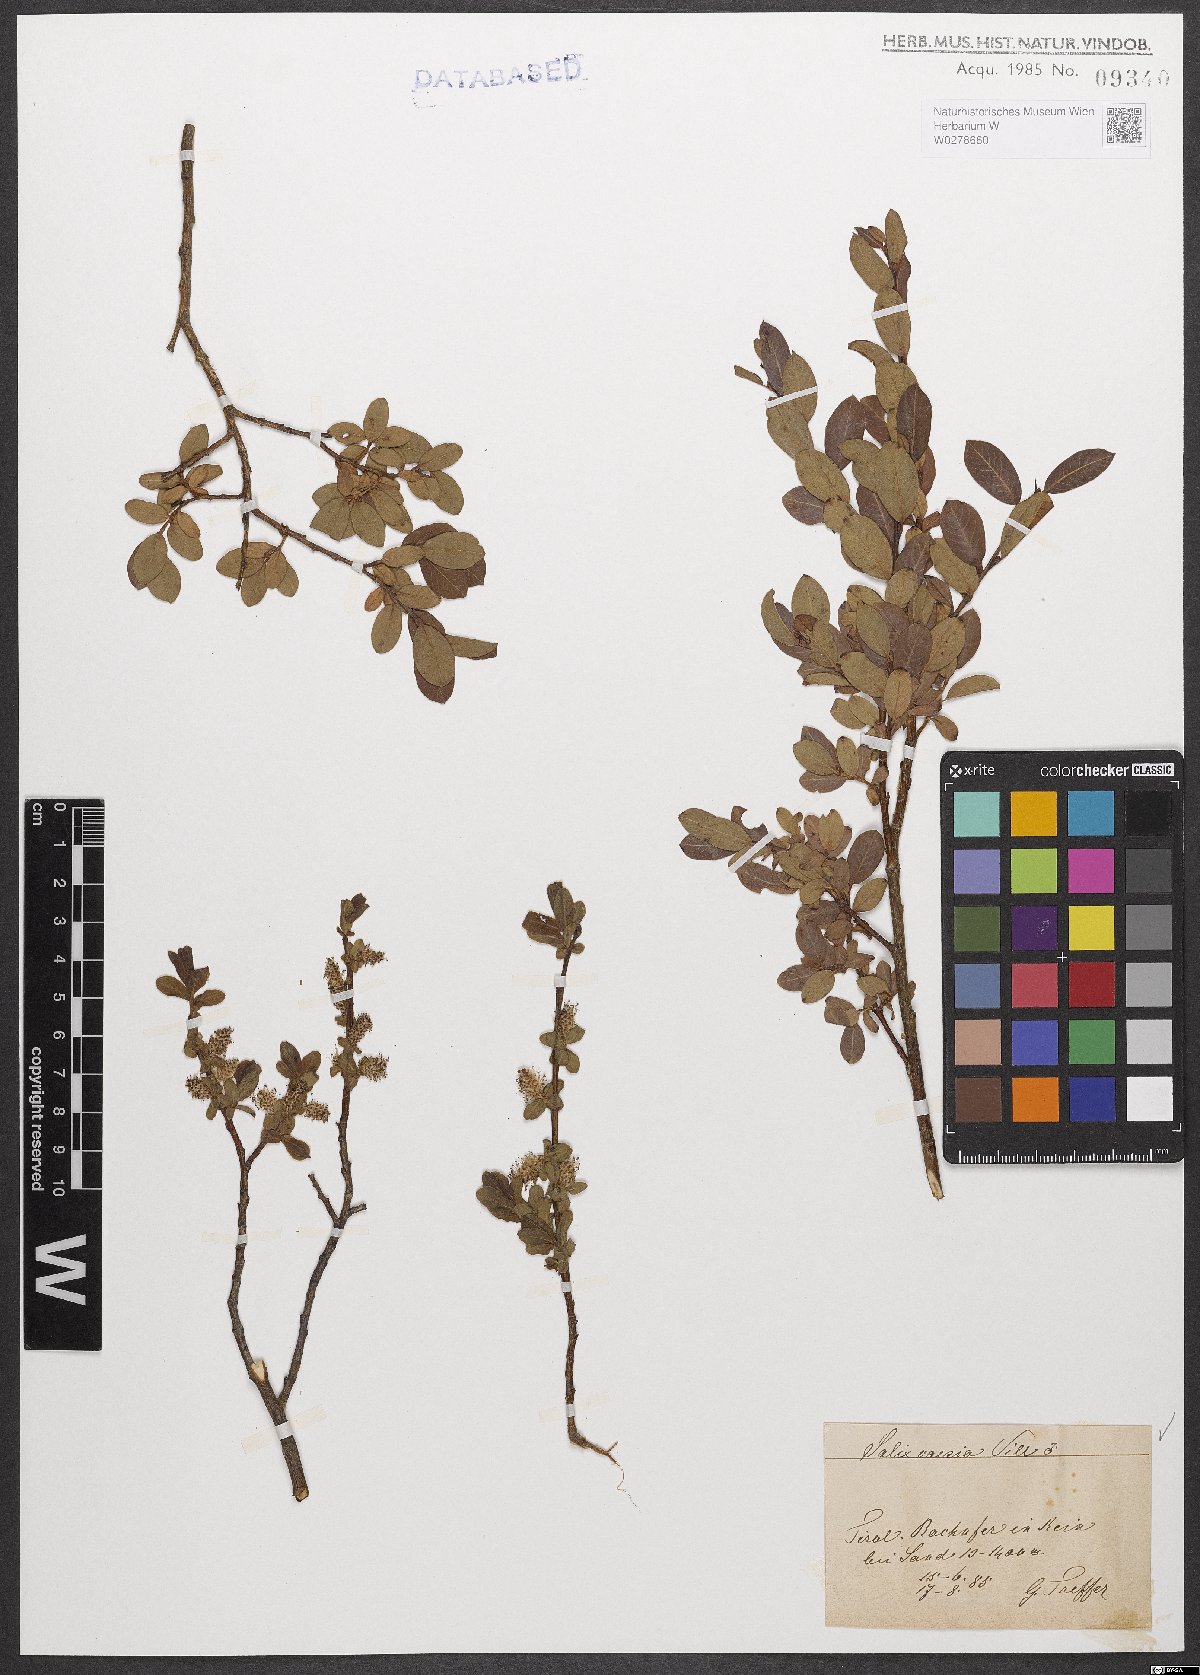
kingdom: Plantae
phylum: Tracheophyta
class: Magnoliopsida
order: Malpighiales
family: Salicaceae
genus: Salix
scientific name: Salix caesia
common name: Blue willow
